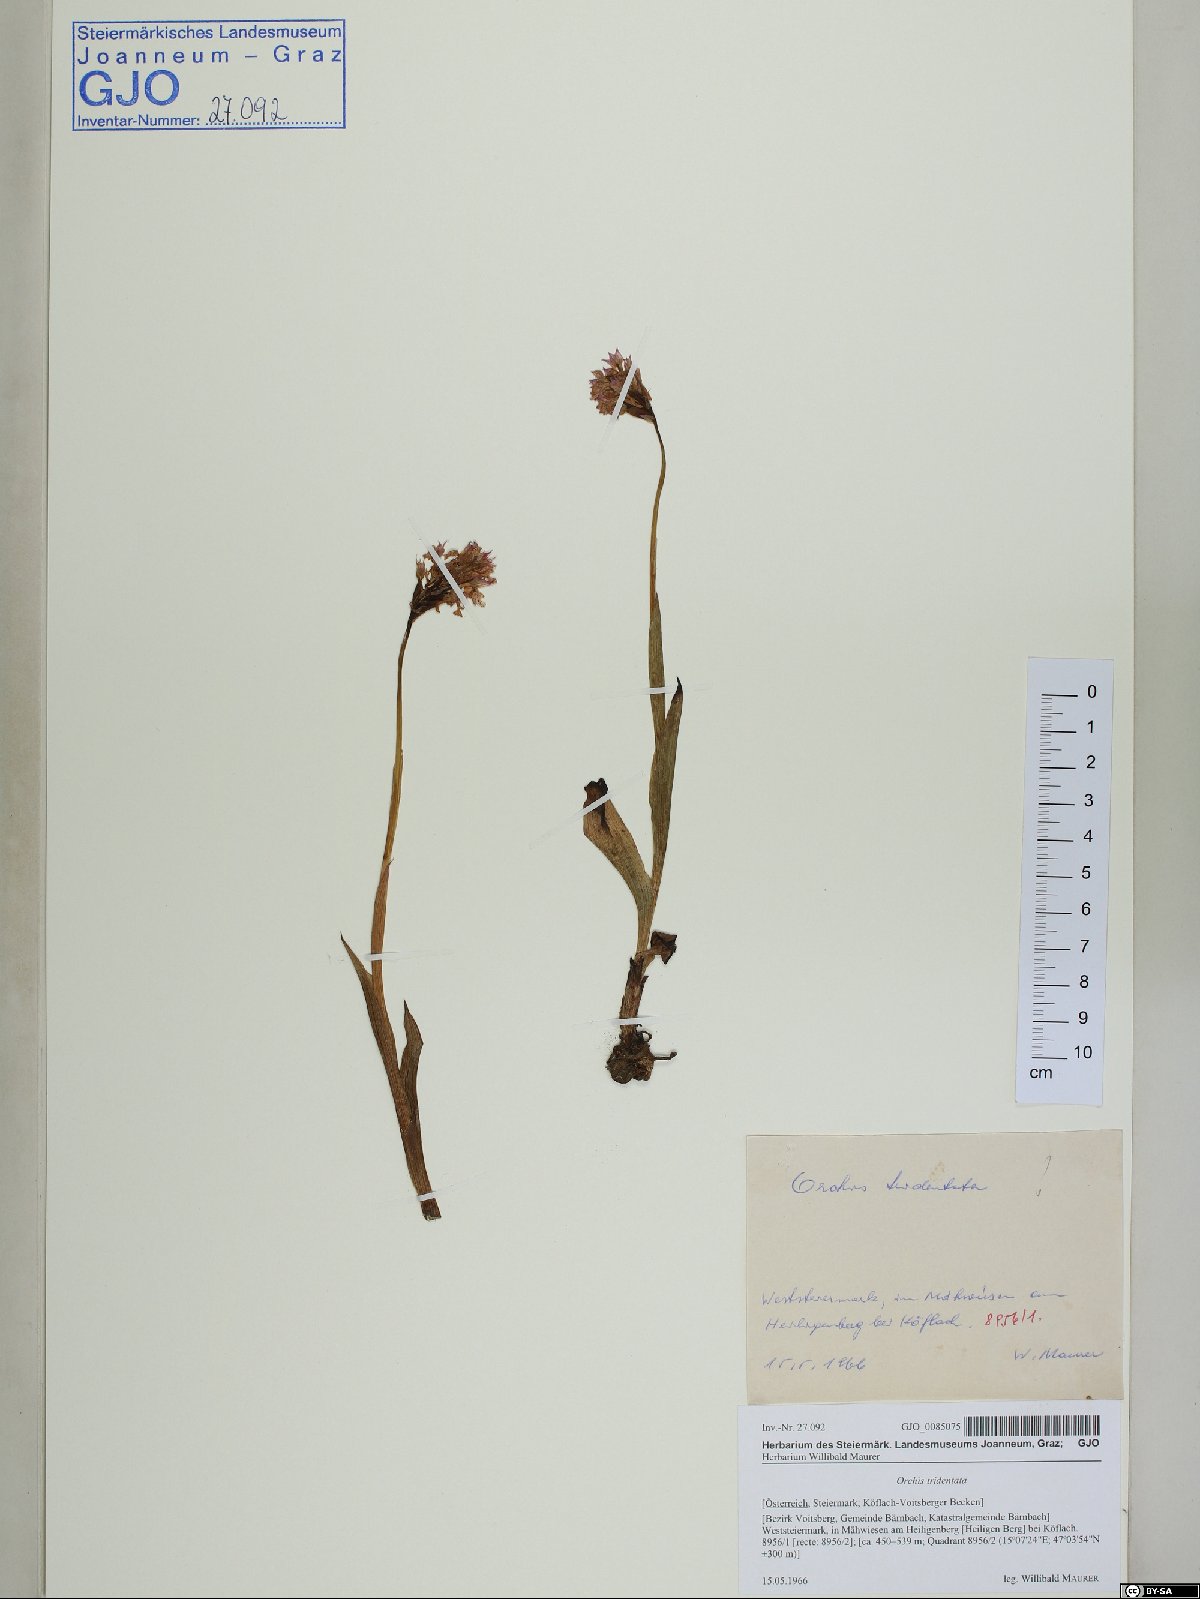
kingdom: Plantae
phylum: Tracheophyta
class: Liliopsida
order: Asparagales
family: Orchidaceae
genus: Neotinea
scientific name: Neotinea tridentata
